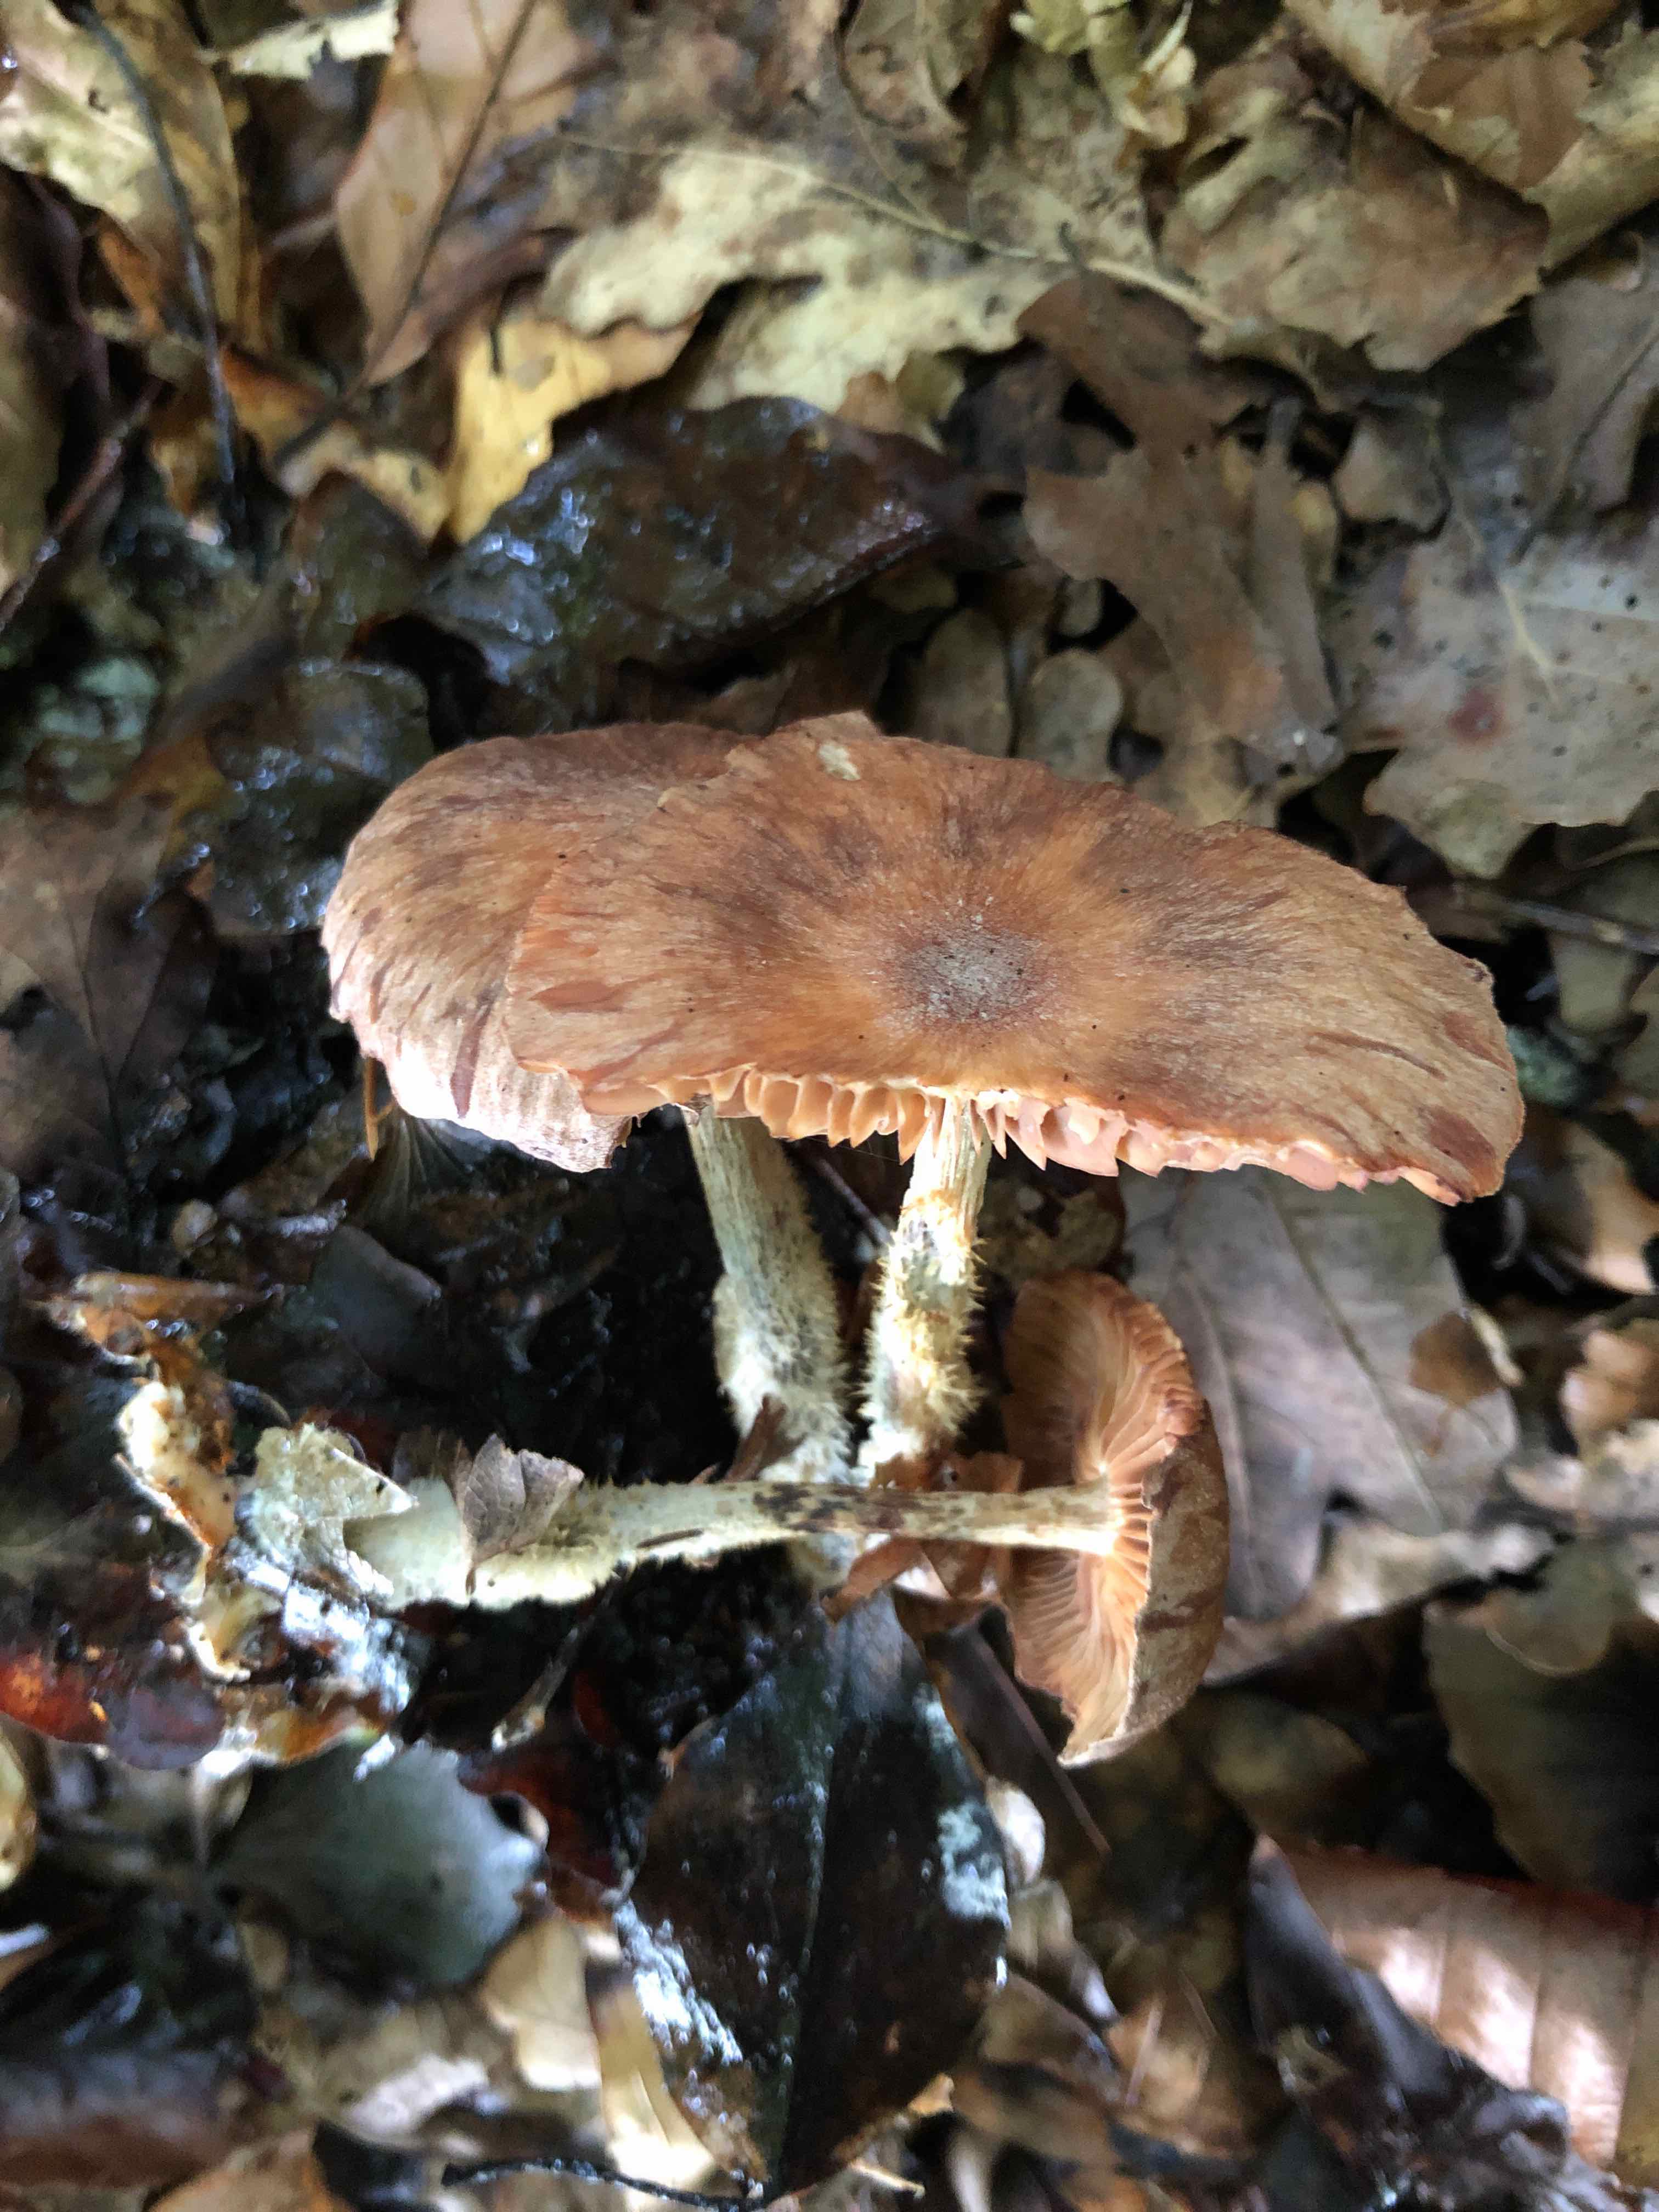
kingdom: Fungi
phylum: Basidiomycota
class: Agaricomycetes
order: Agaricales
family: Omphalotaceae
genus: Collybiopsis
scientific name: Collybiopsis peronata
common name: bestøvlet fladhat
